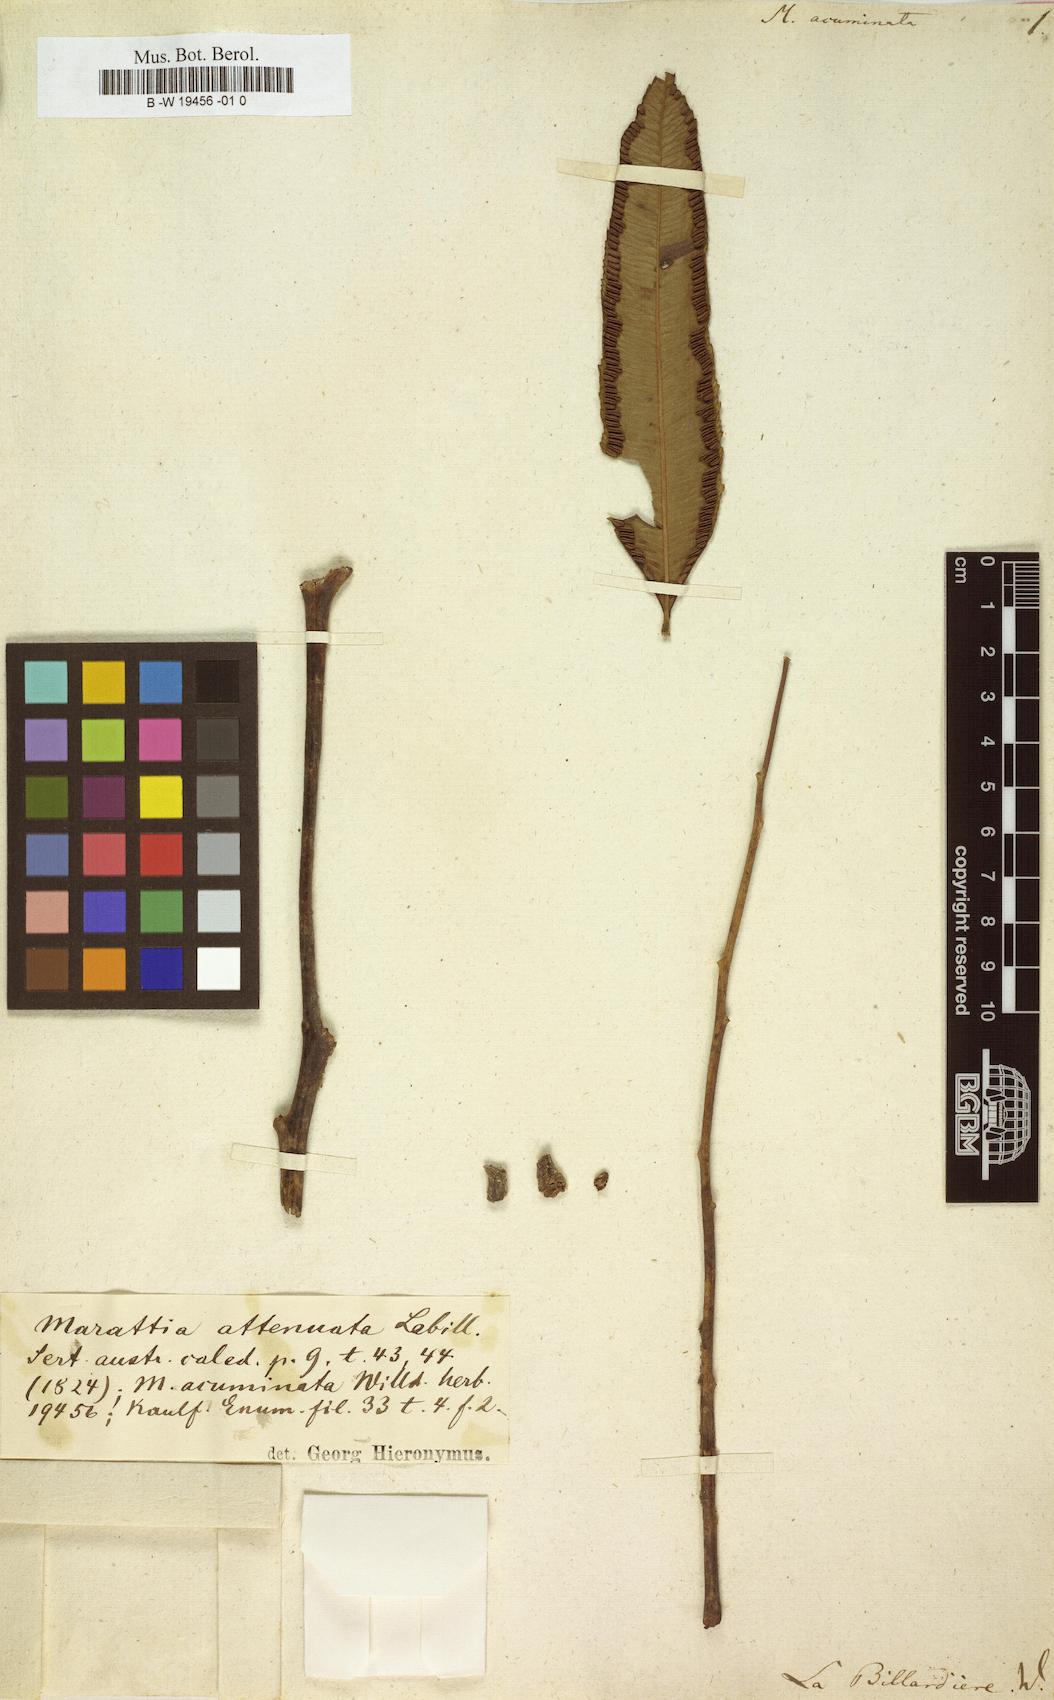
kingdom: Plantae
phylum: Tracheophyta
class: Polypodiopsida
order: Marattiales
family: Marattiaceae
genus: Ptisana
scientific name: Ptisana attenuata
